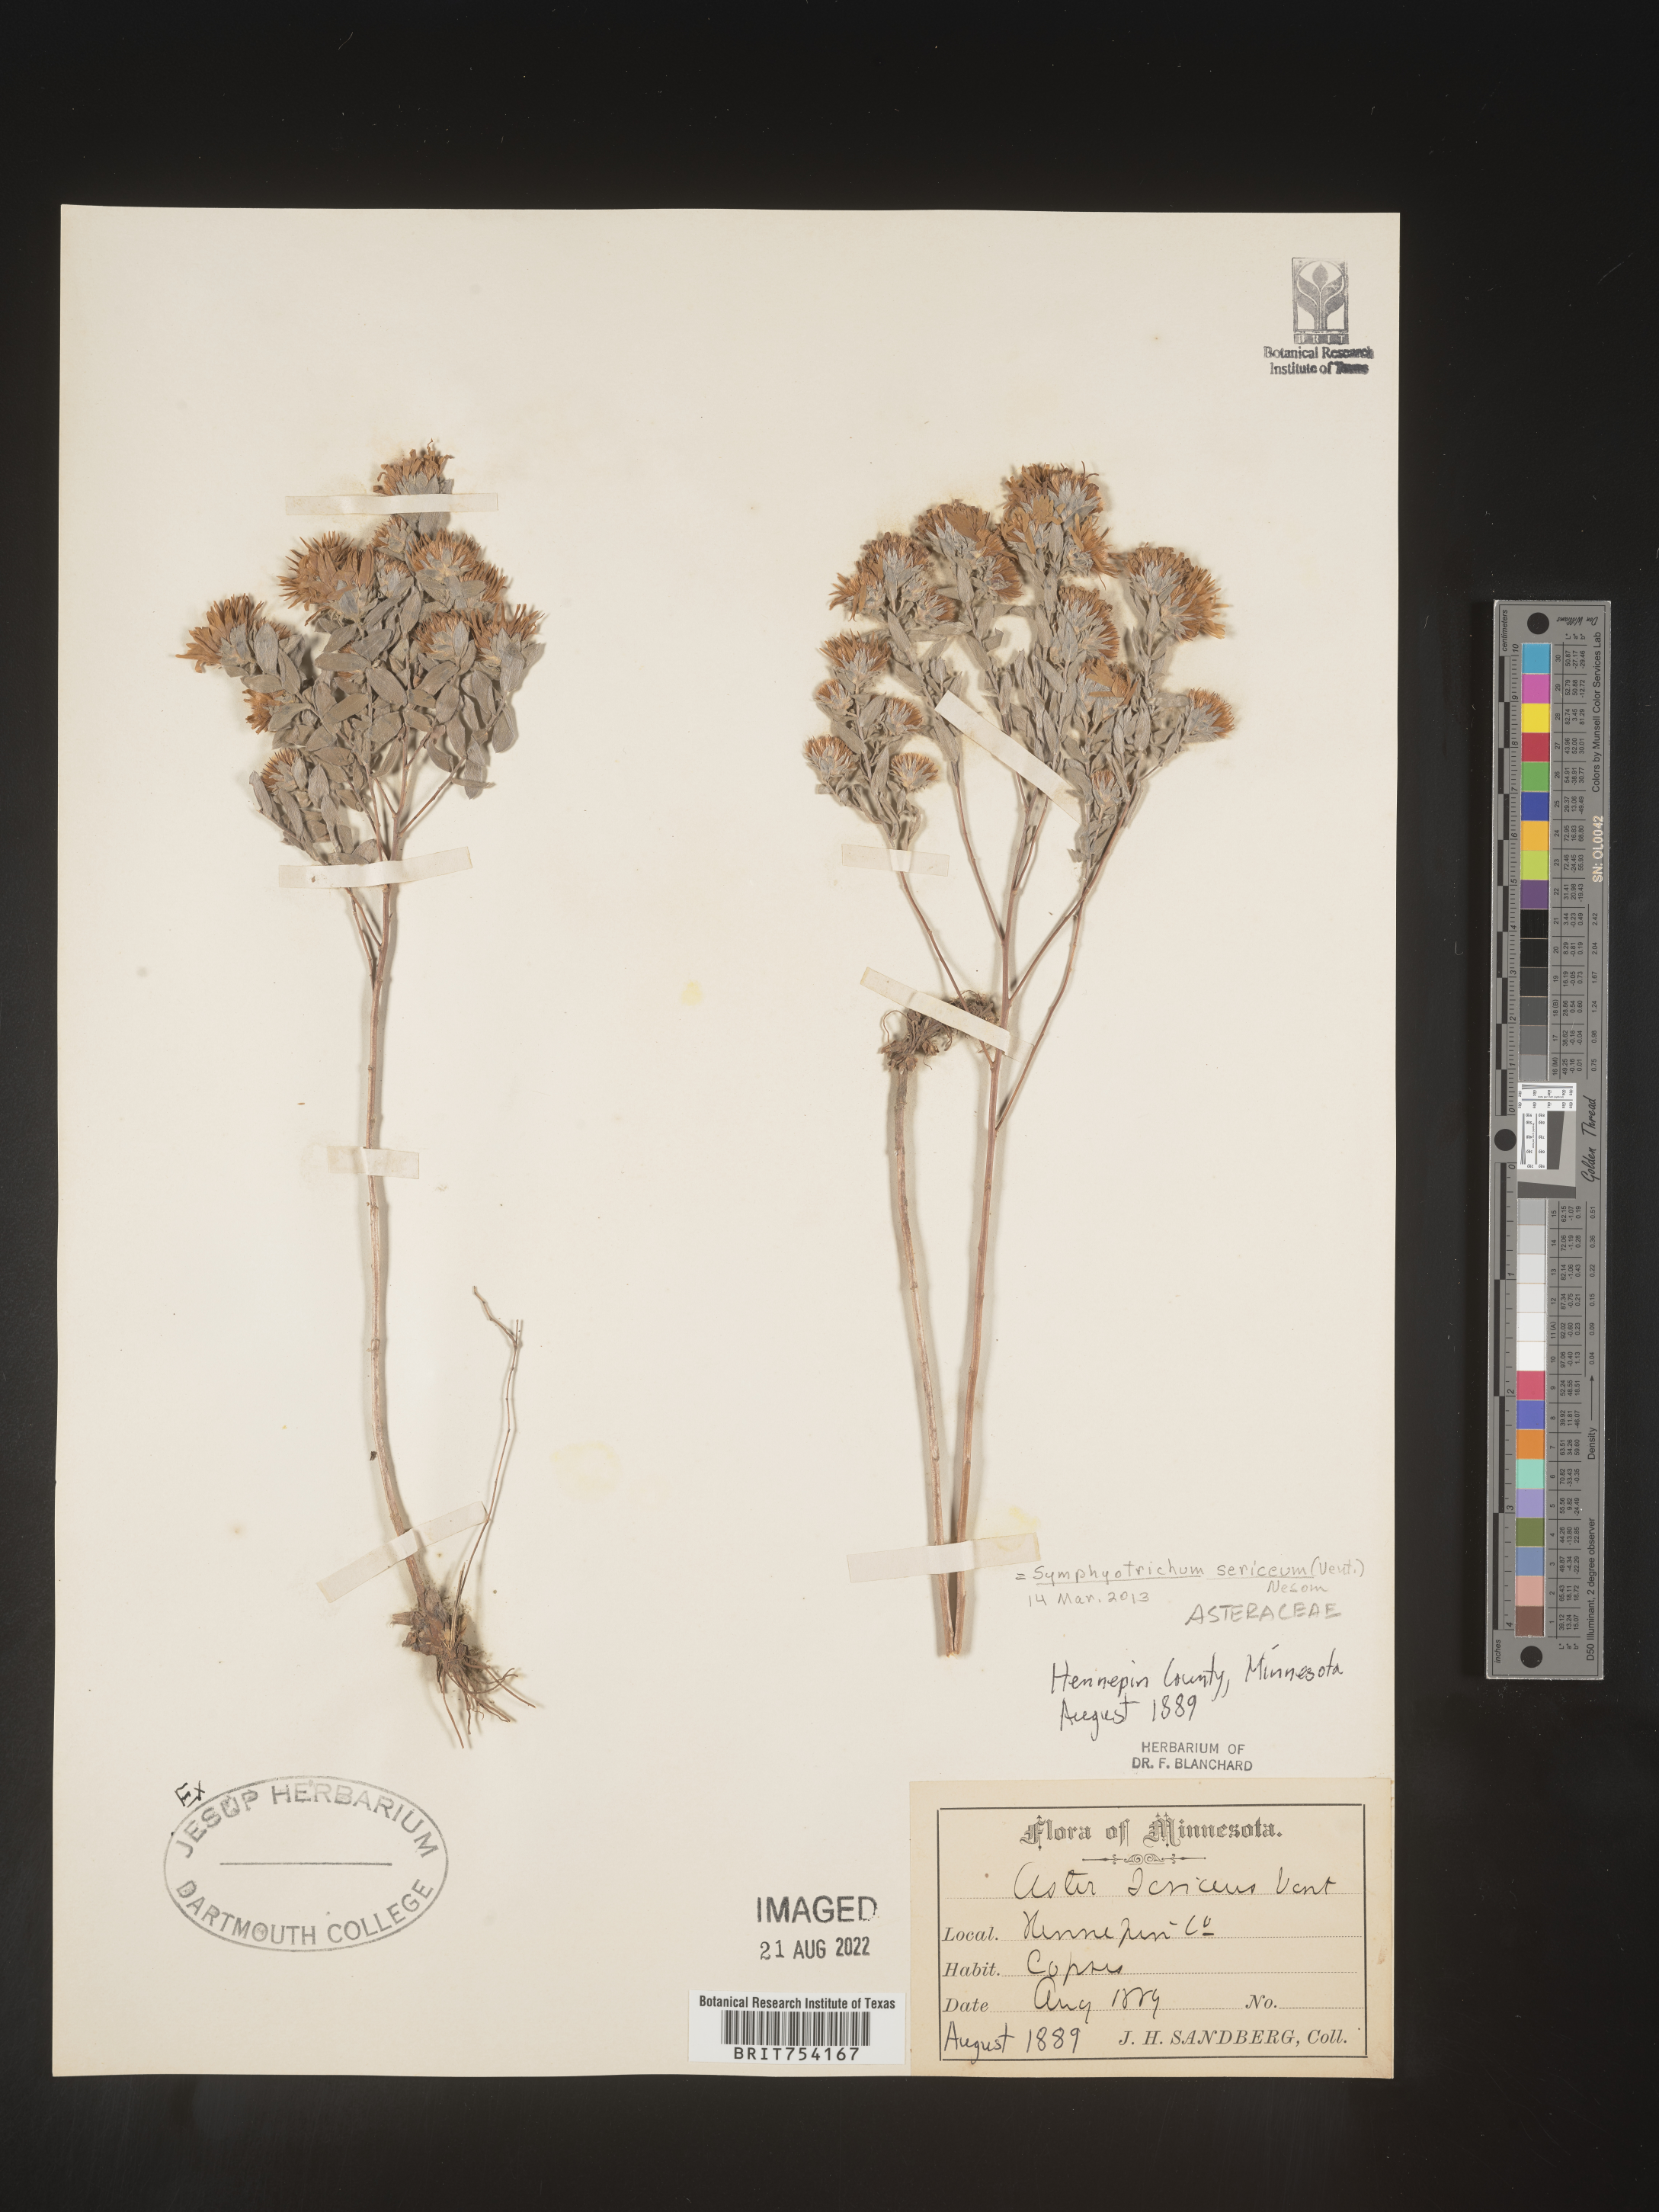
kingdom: Plantae
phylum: Tracheophyta
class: Magnoliopsida
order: Asterales
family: Asteraceae
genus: Symphyotrichum
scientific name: Symphyotrichum sericeum
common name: Silky aster
